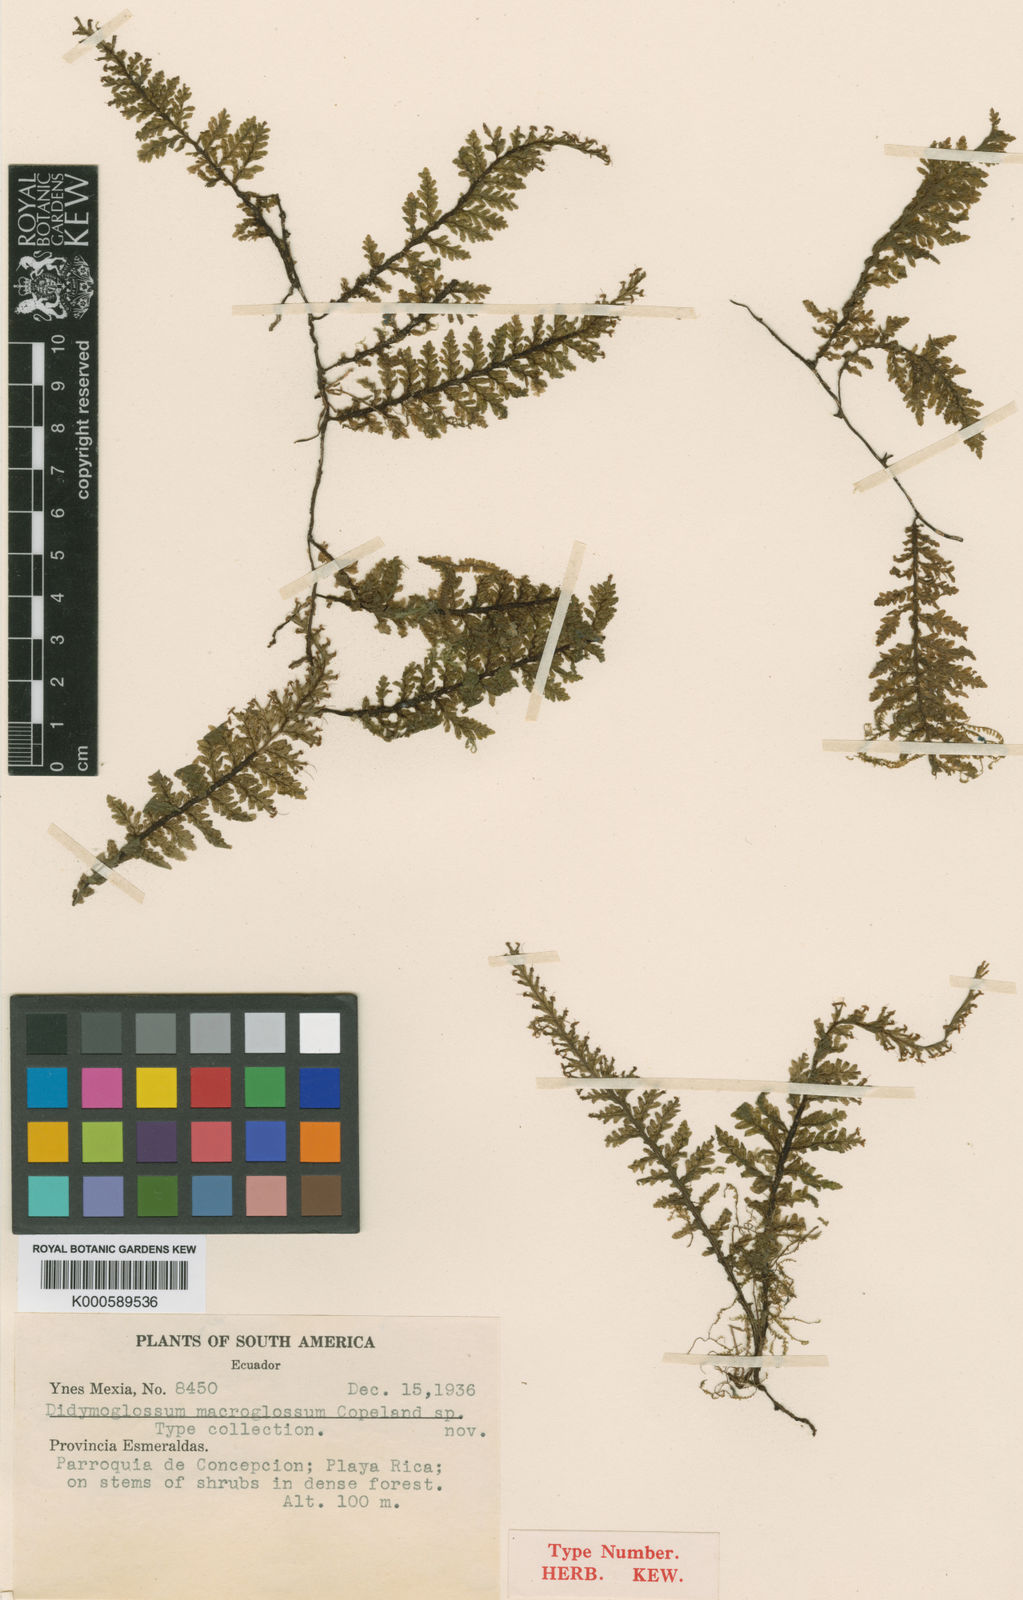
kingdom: Plantae
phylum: Tracheophyta
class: Polypodiopsida
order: Hymenophyllales
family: Hymenophyllaceae
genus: Trichomanes
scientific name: Trichomanes
